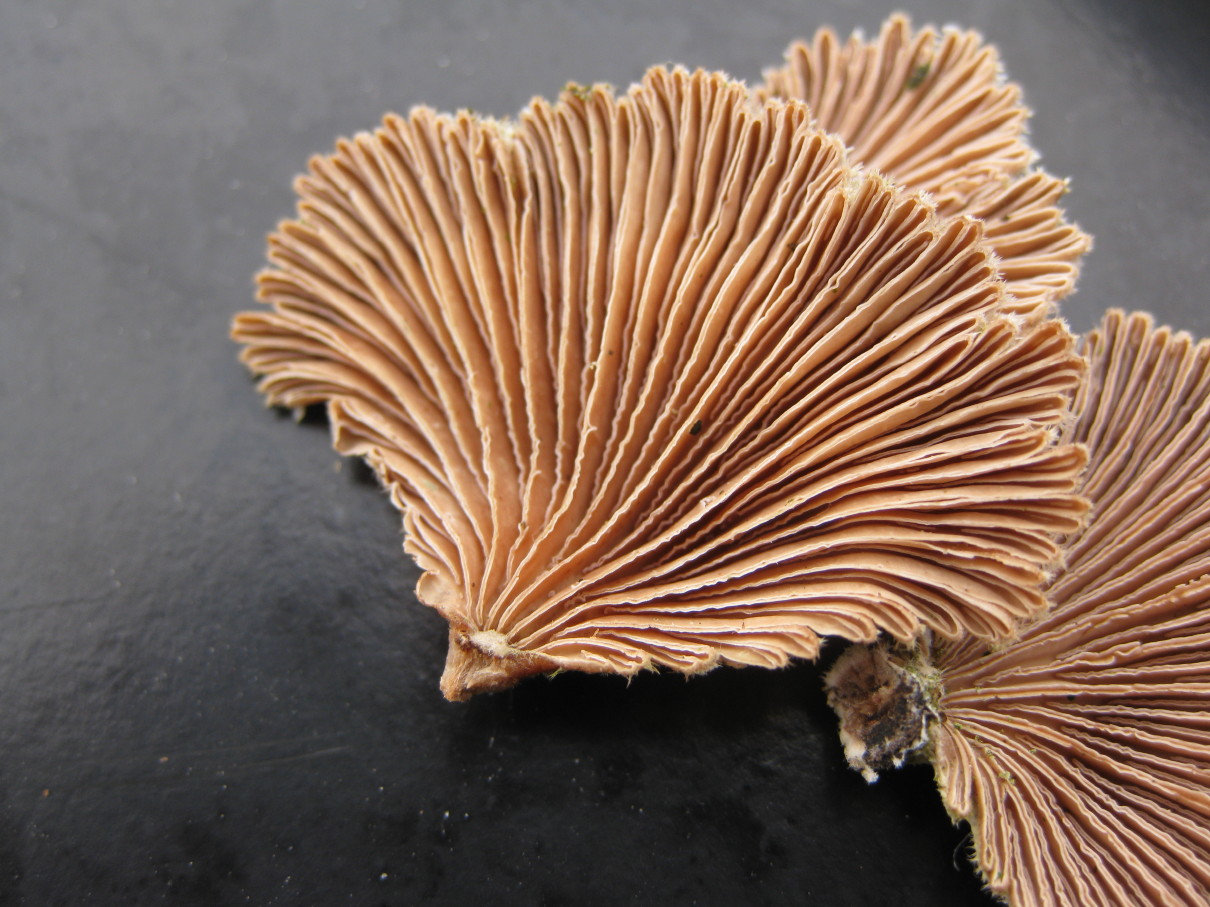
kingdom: Fungi
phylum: Basidiomycota
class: Agaricomycetes
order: Agaricales
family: Schizophyllaceae
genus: Schizophyllum
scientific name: Schizophyllum commune
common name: kløvblad
